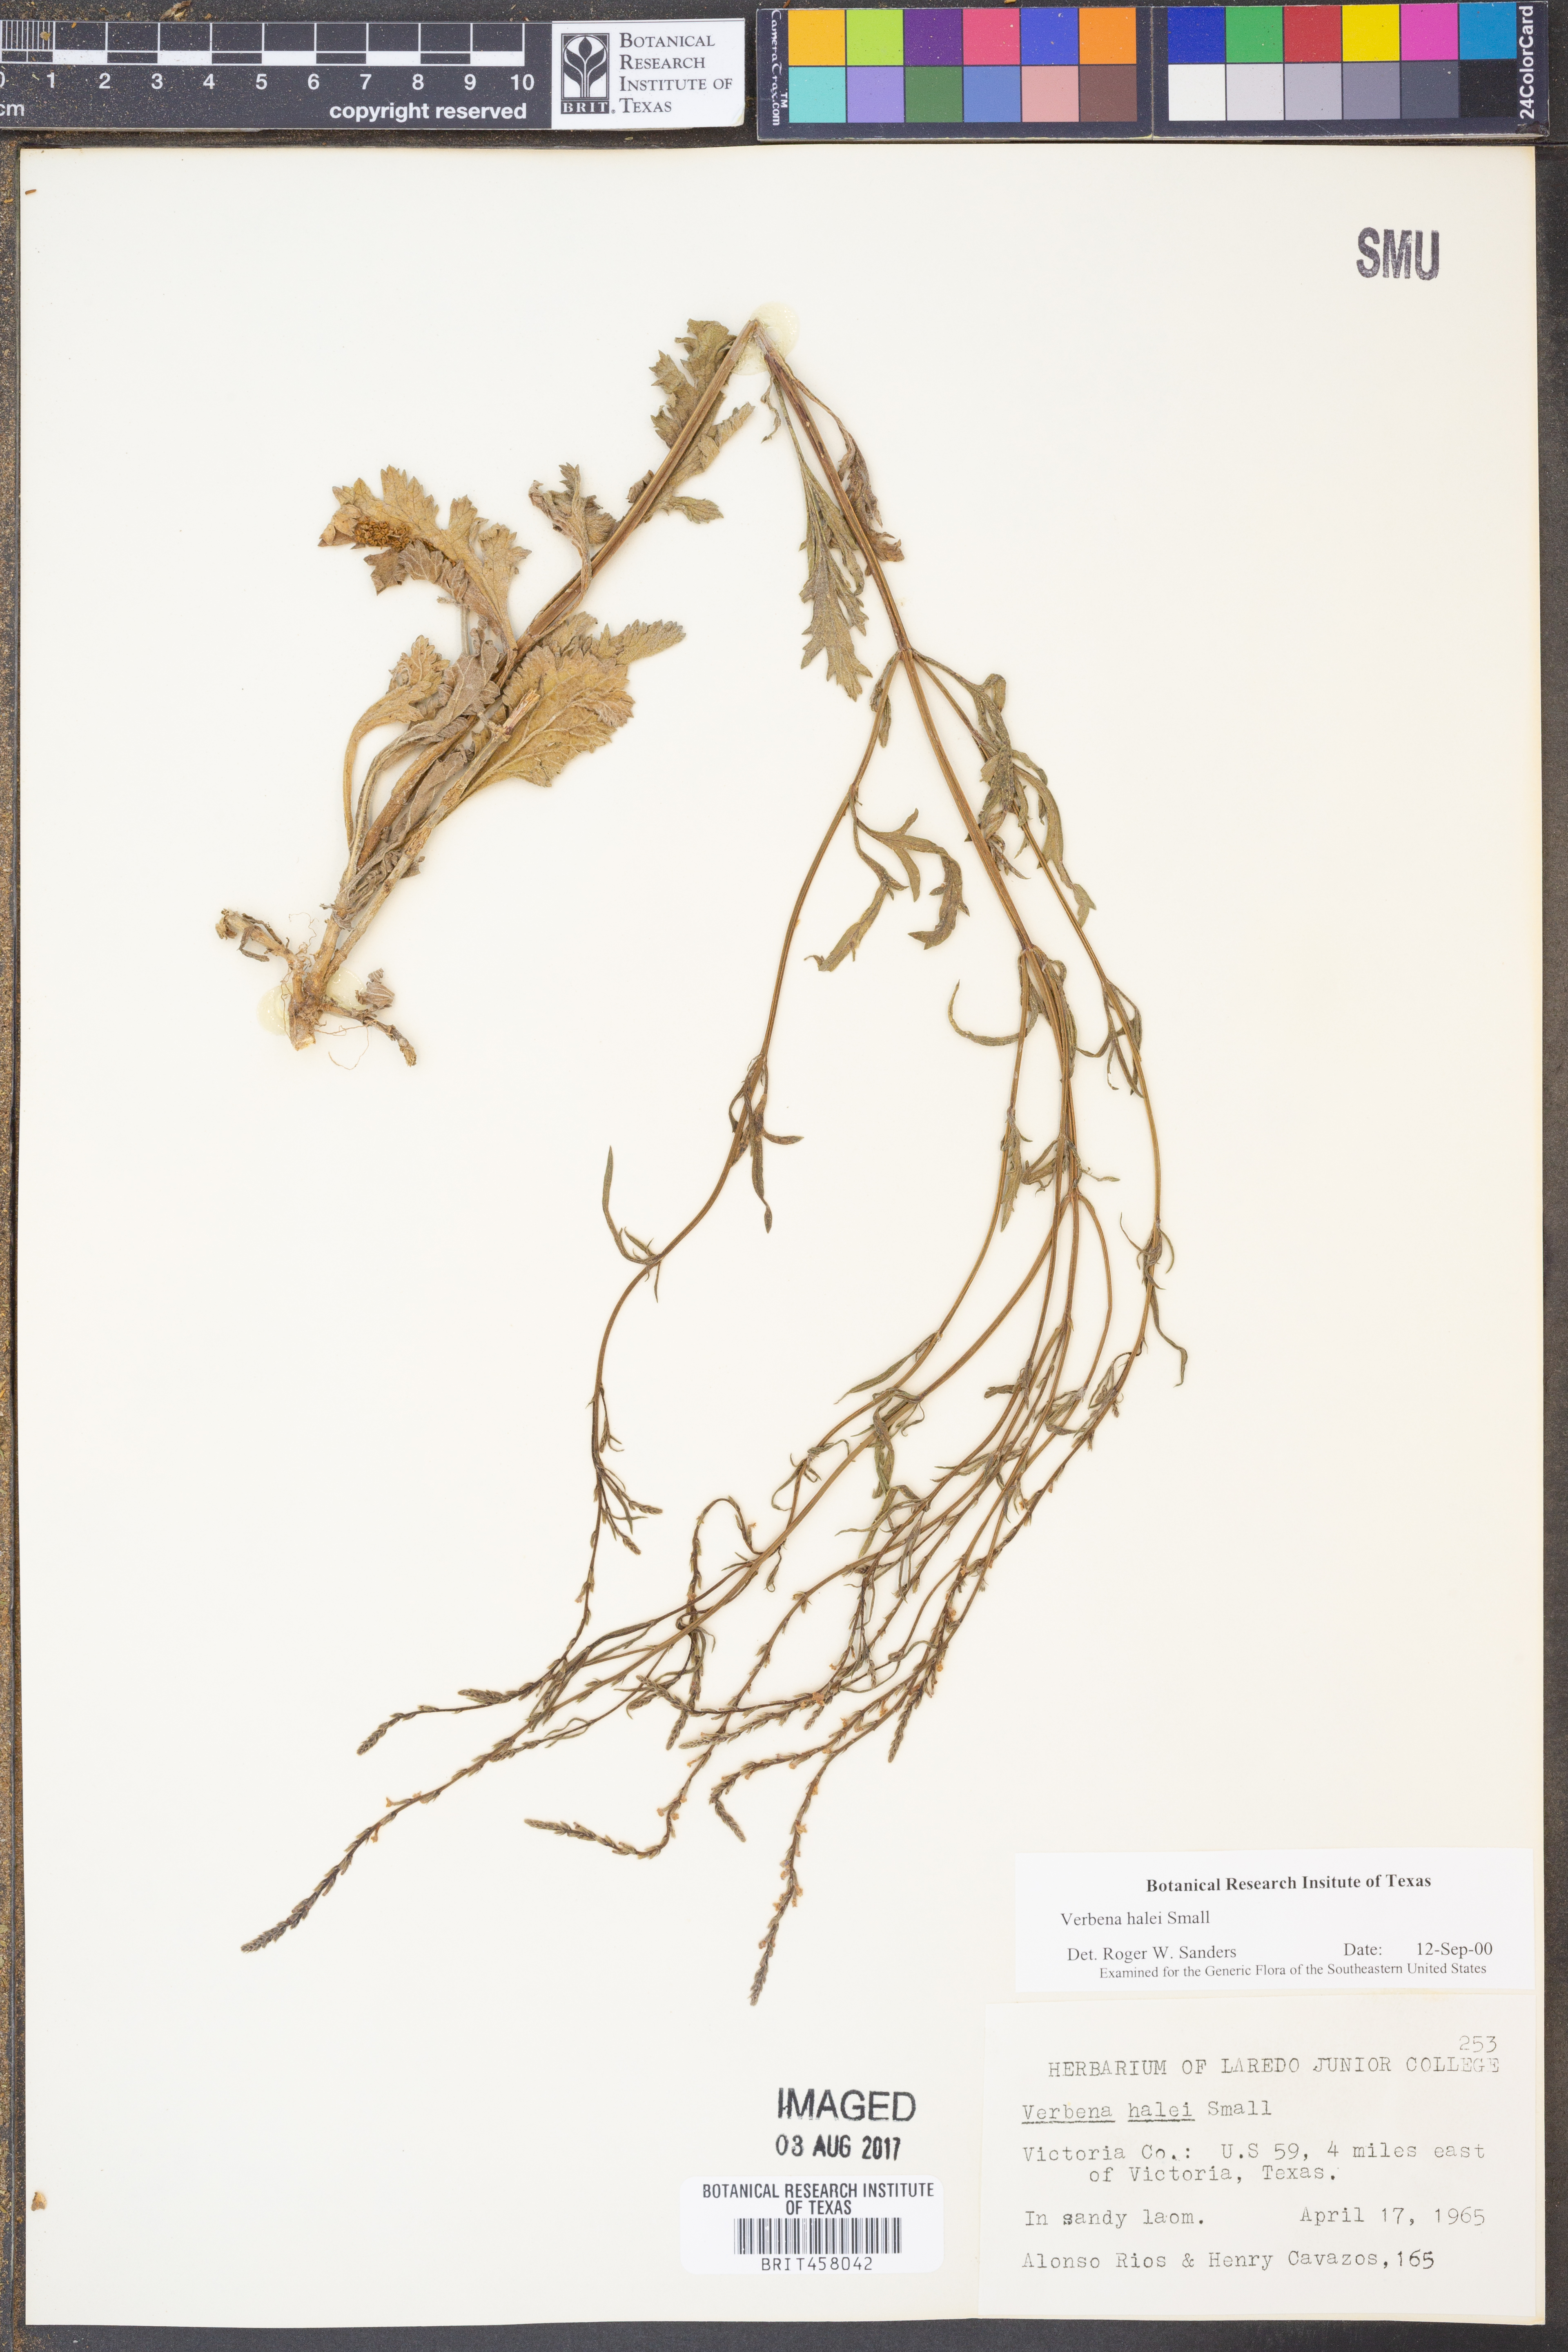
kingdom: Plantae
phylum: Tracheophyta
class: Magnoliopsida
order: Lamiales
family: Verbenaceae
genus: Verbena
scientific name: Verbena halei
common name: Texas vervain
